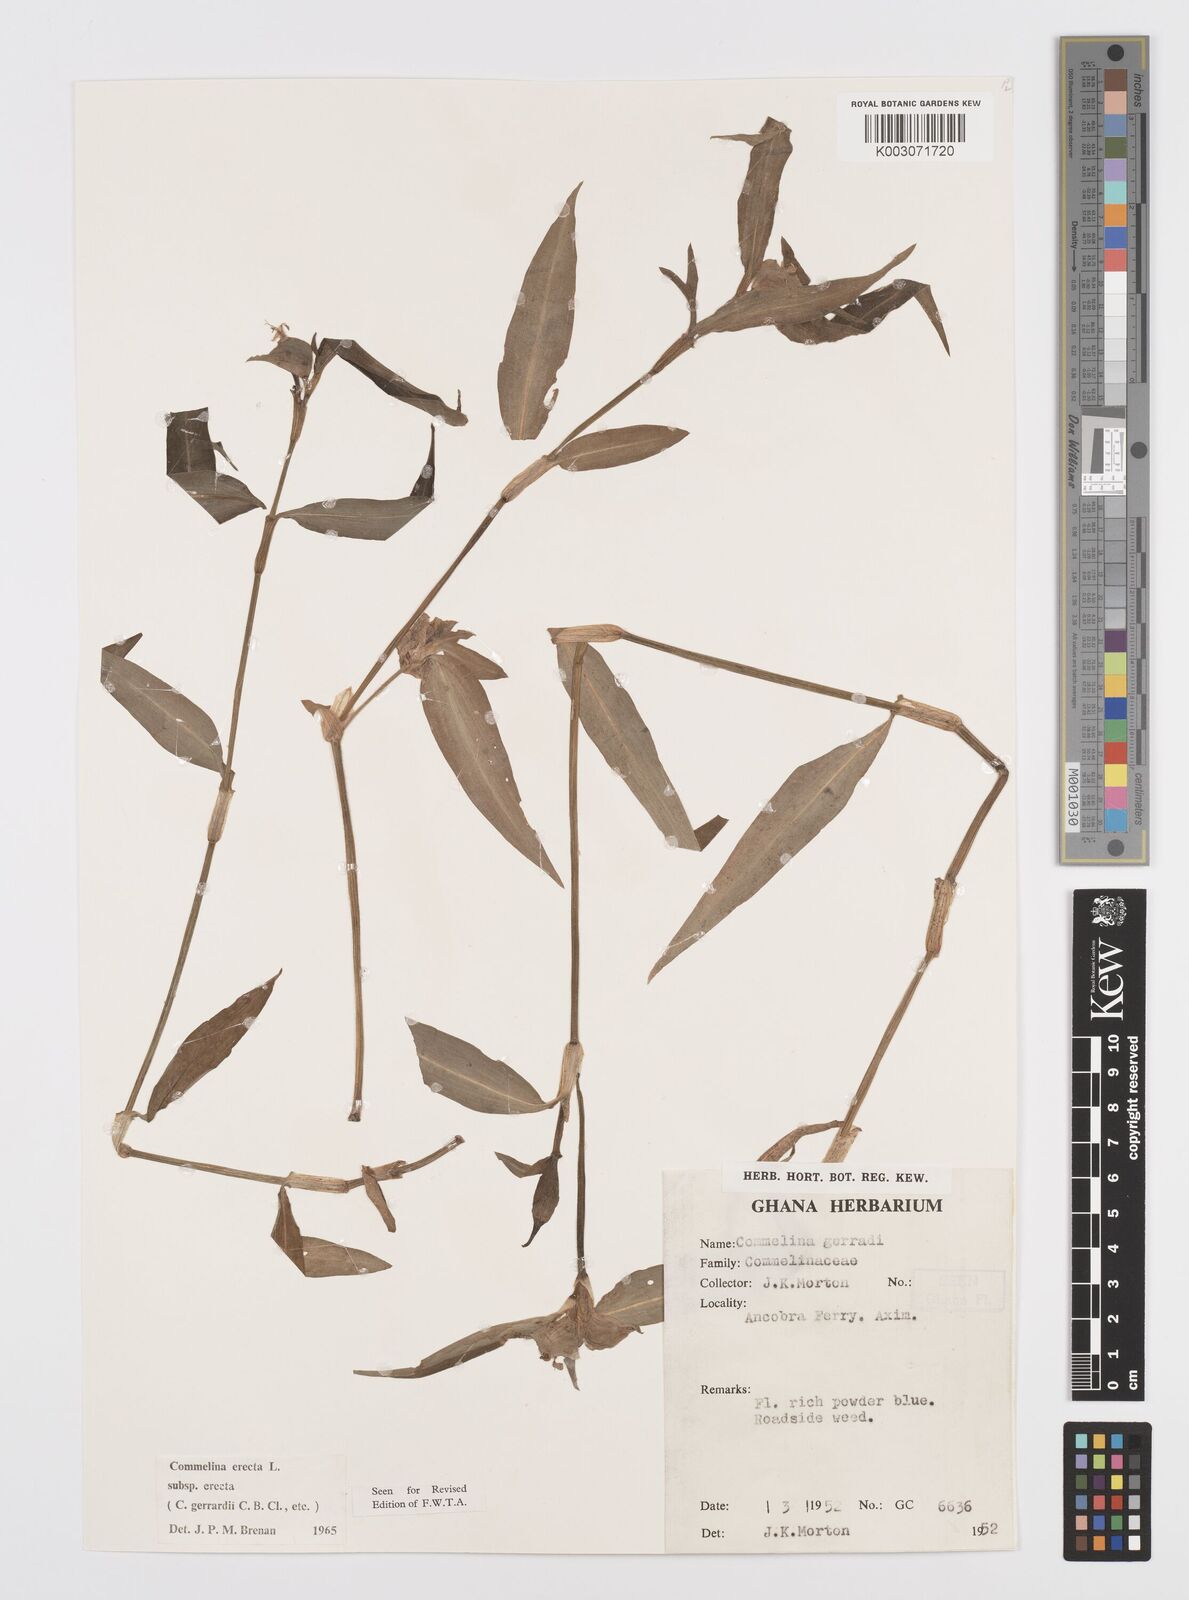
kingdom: Plantae
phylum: Tracheophyta
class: Liliopsida
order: Commelinales
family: Commelinaceae
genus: Commelina
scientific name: Commelina erecta
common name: Blousel blommetjie
